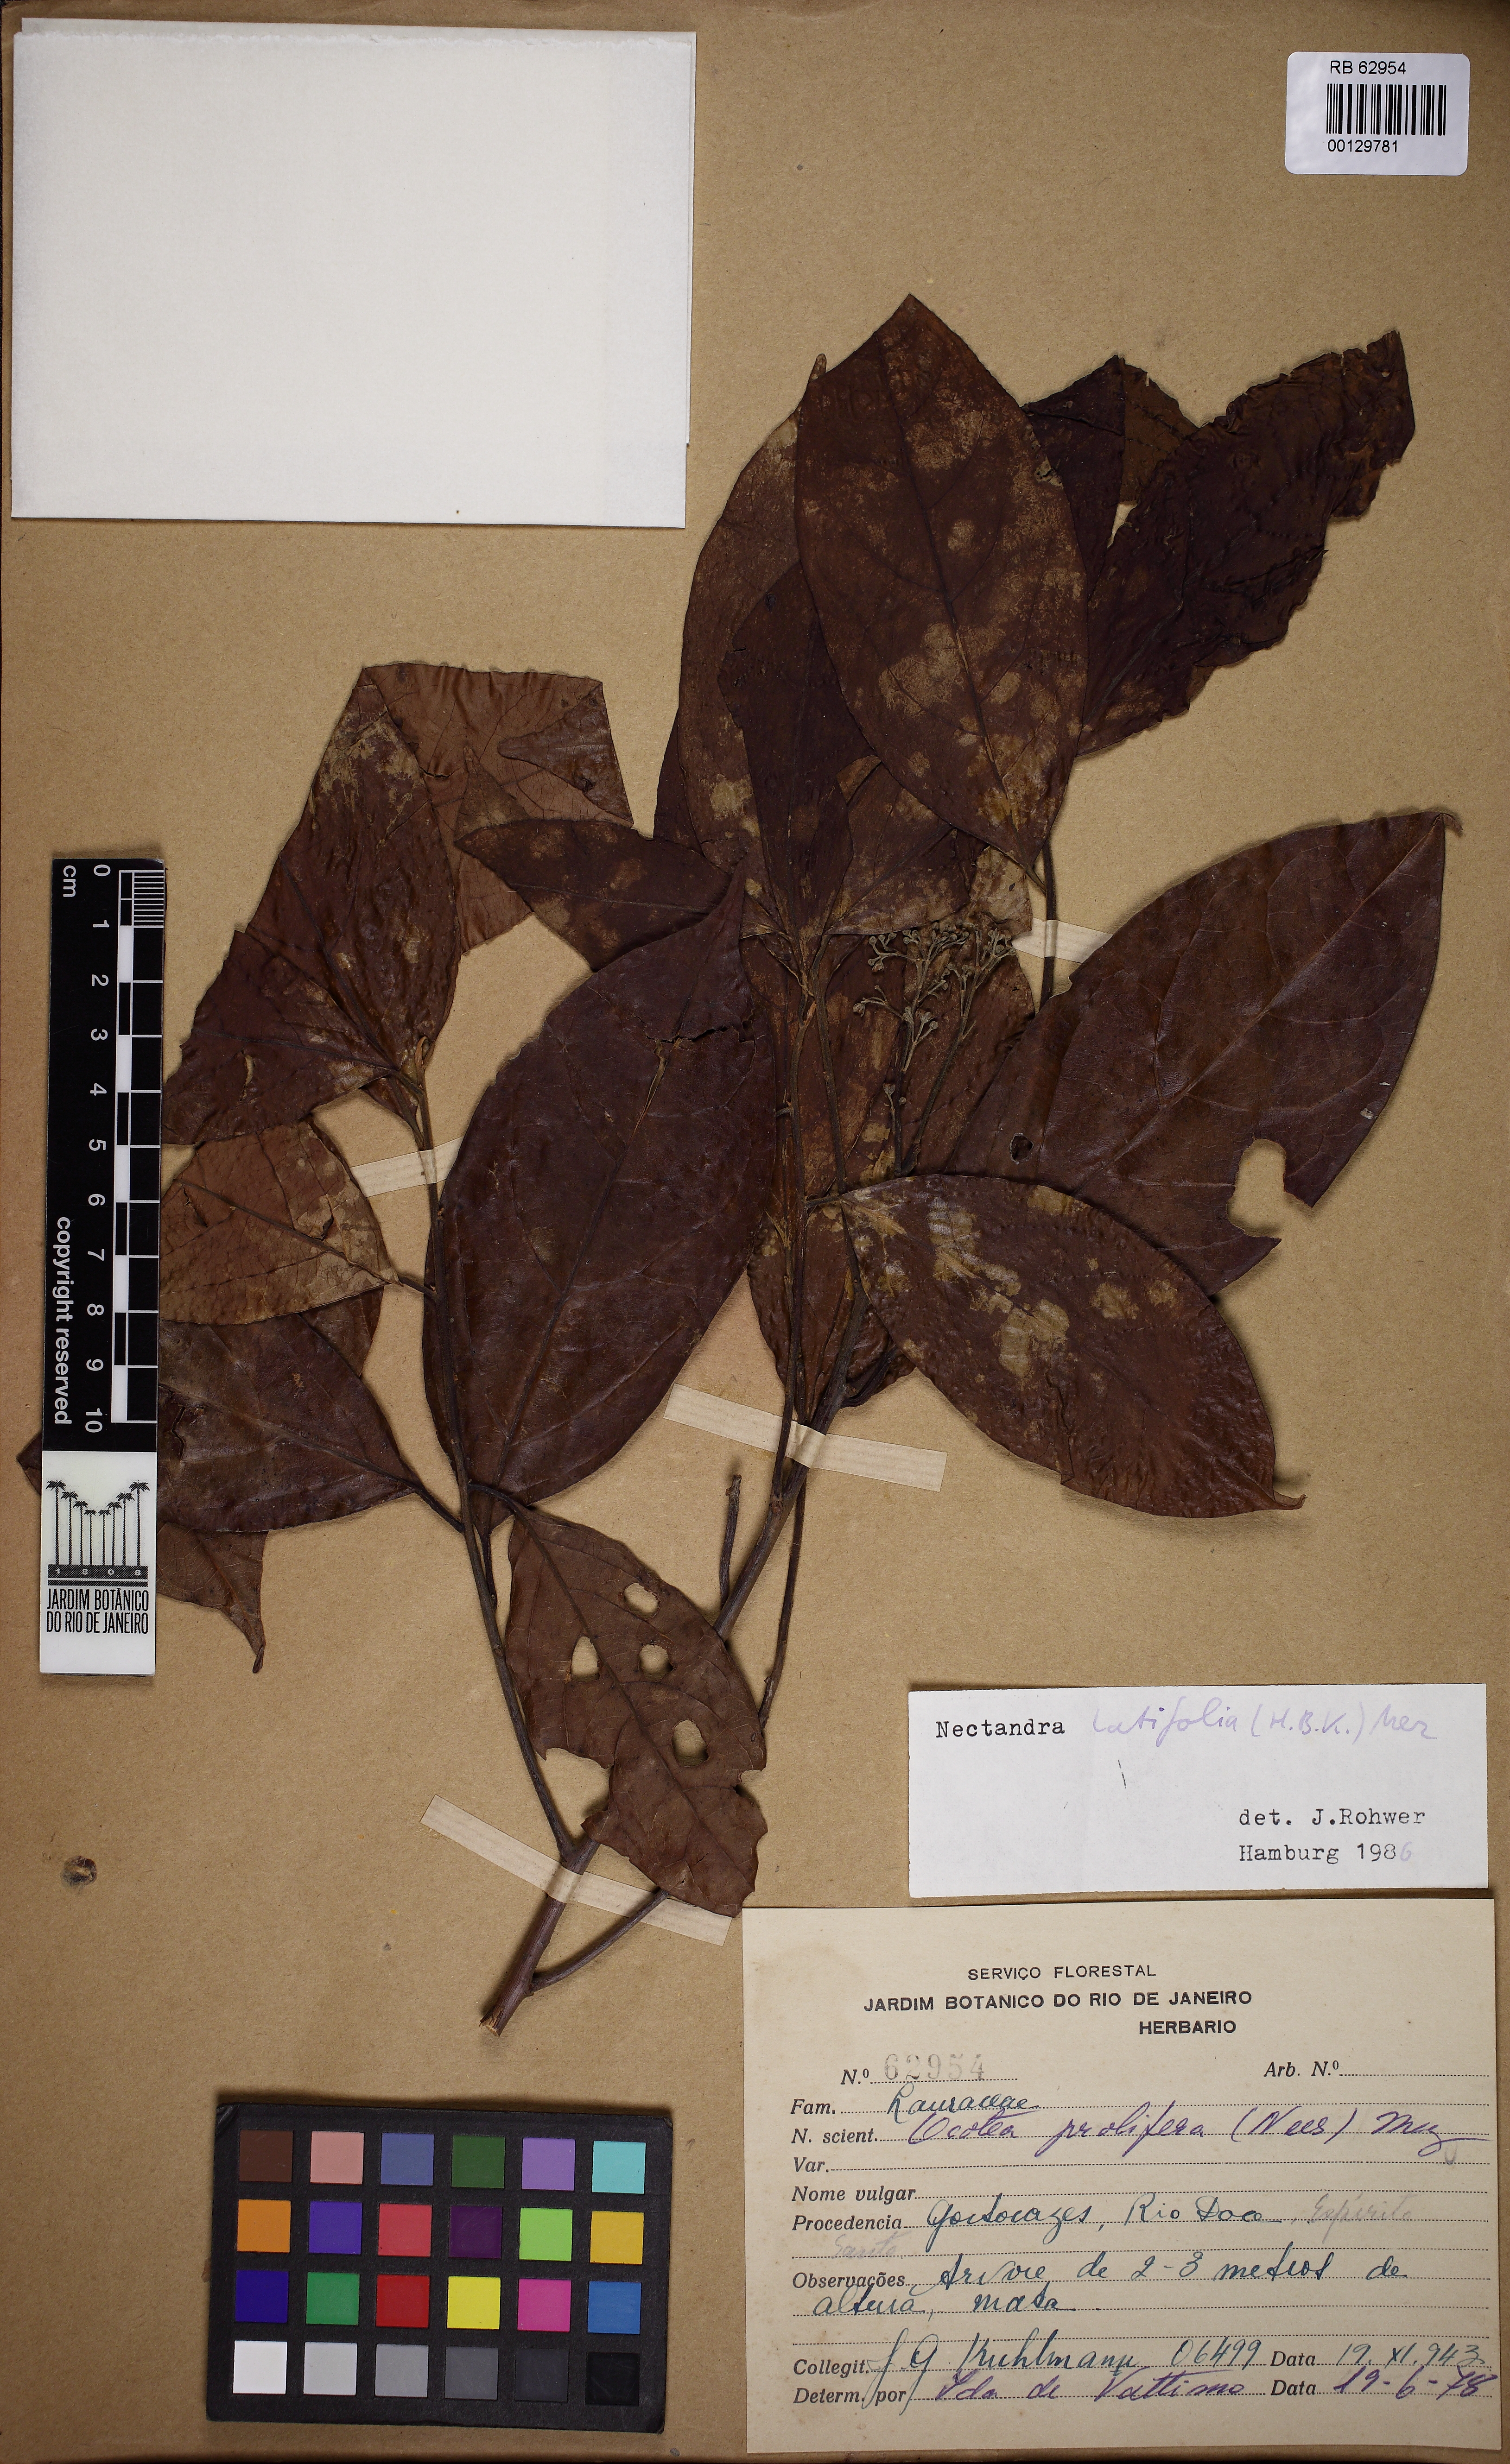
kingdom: Plantae
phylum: Tracheophyta
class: Magnoliopsida
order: Laurales
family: Lauraceae
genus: Damburneya
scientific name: Damburneya purpurea
